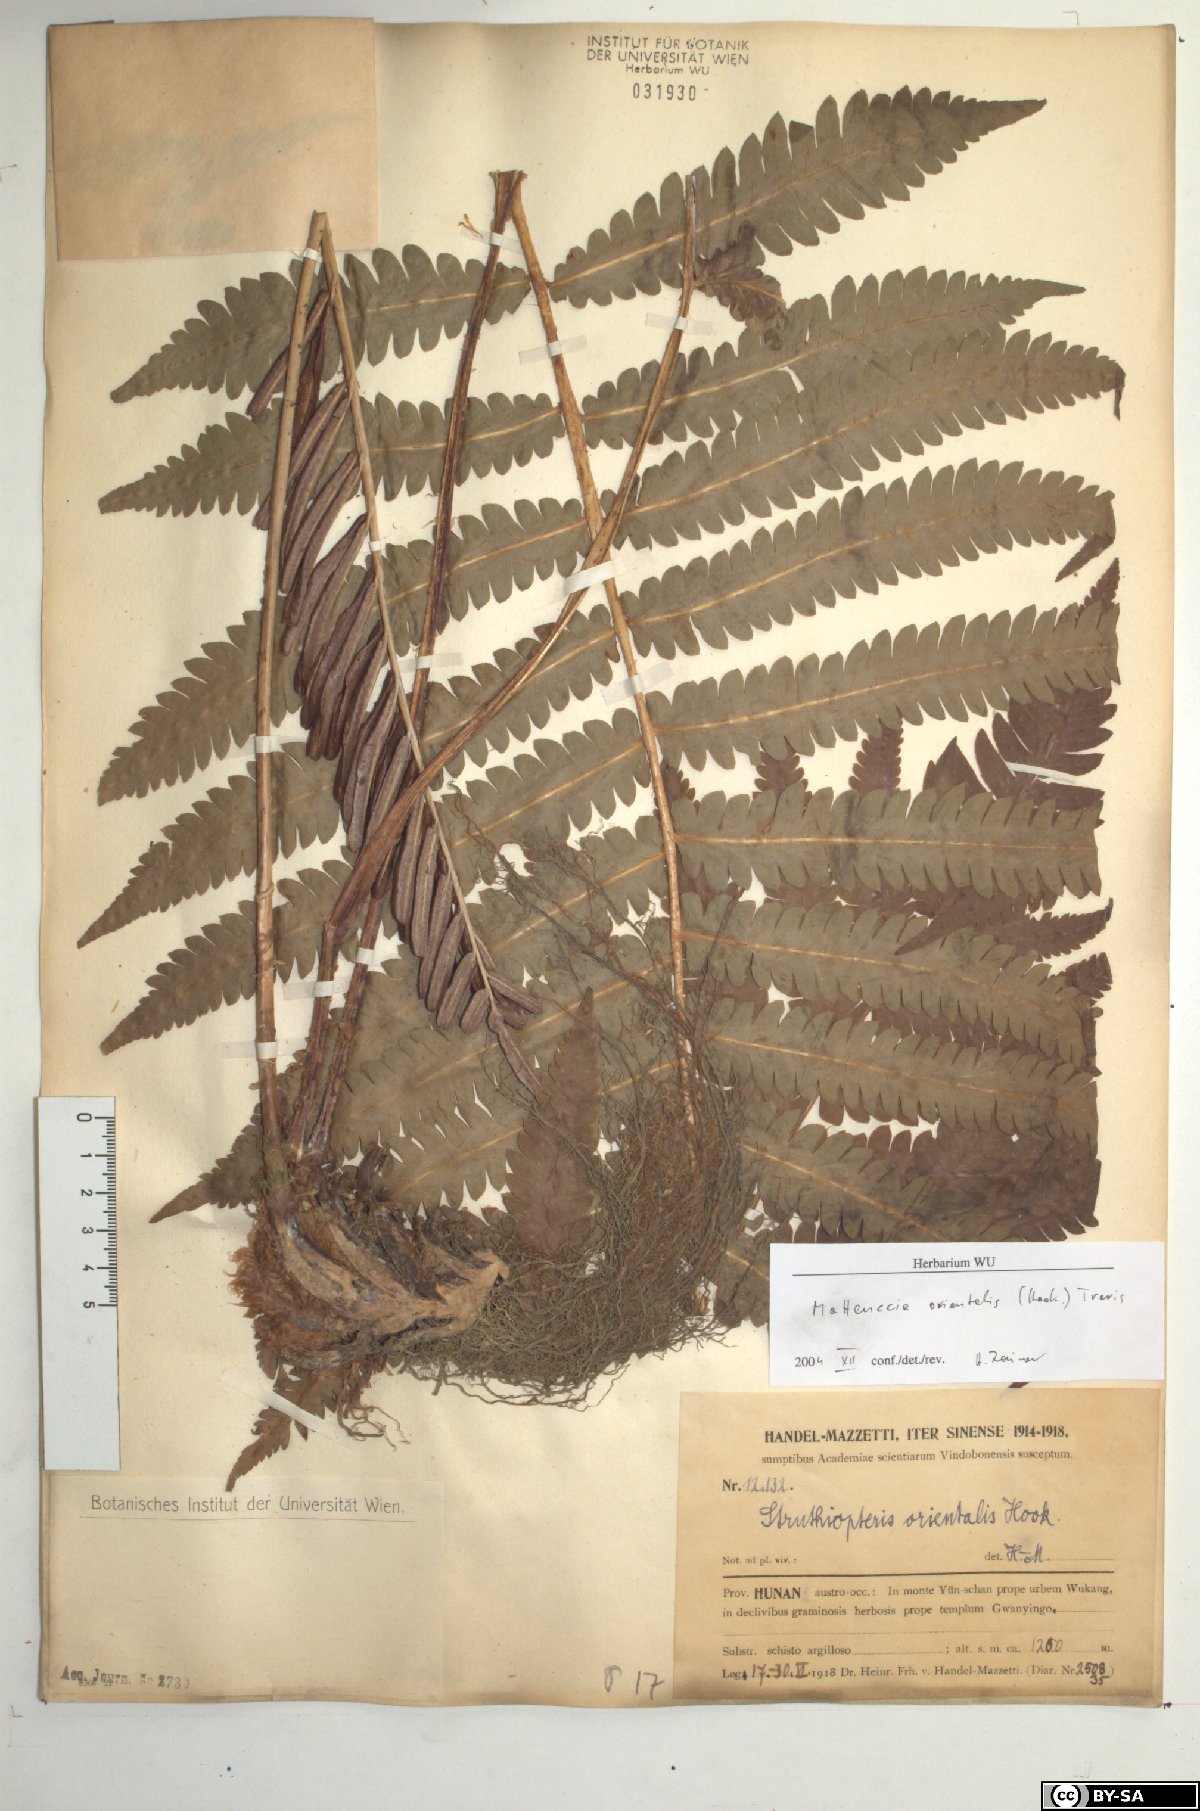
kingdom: Plantae
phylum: Tracheophyta
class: Polypodiopsida
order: Polypodiales
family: Onocleaceae
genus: Pentarhizidium
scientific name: Pentarhizidium orientale
